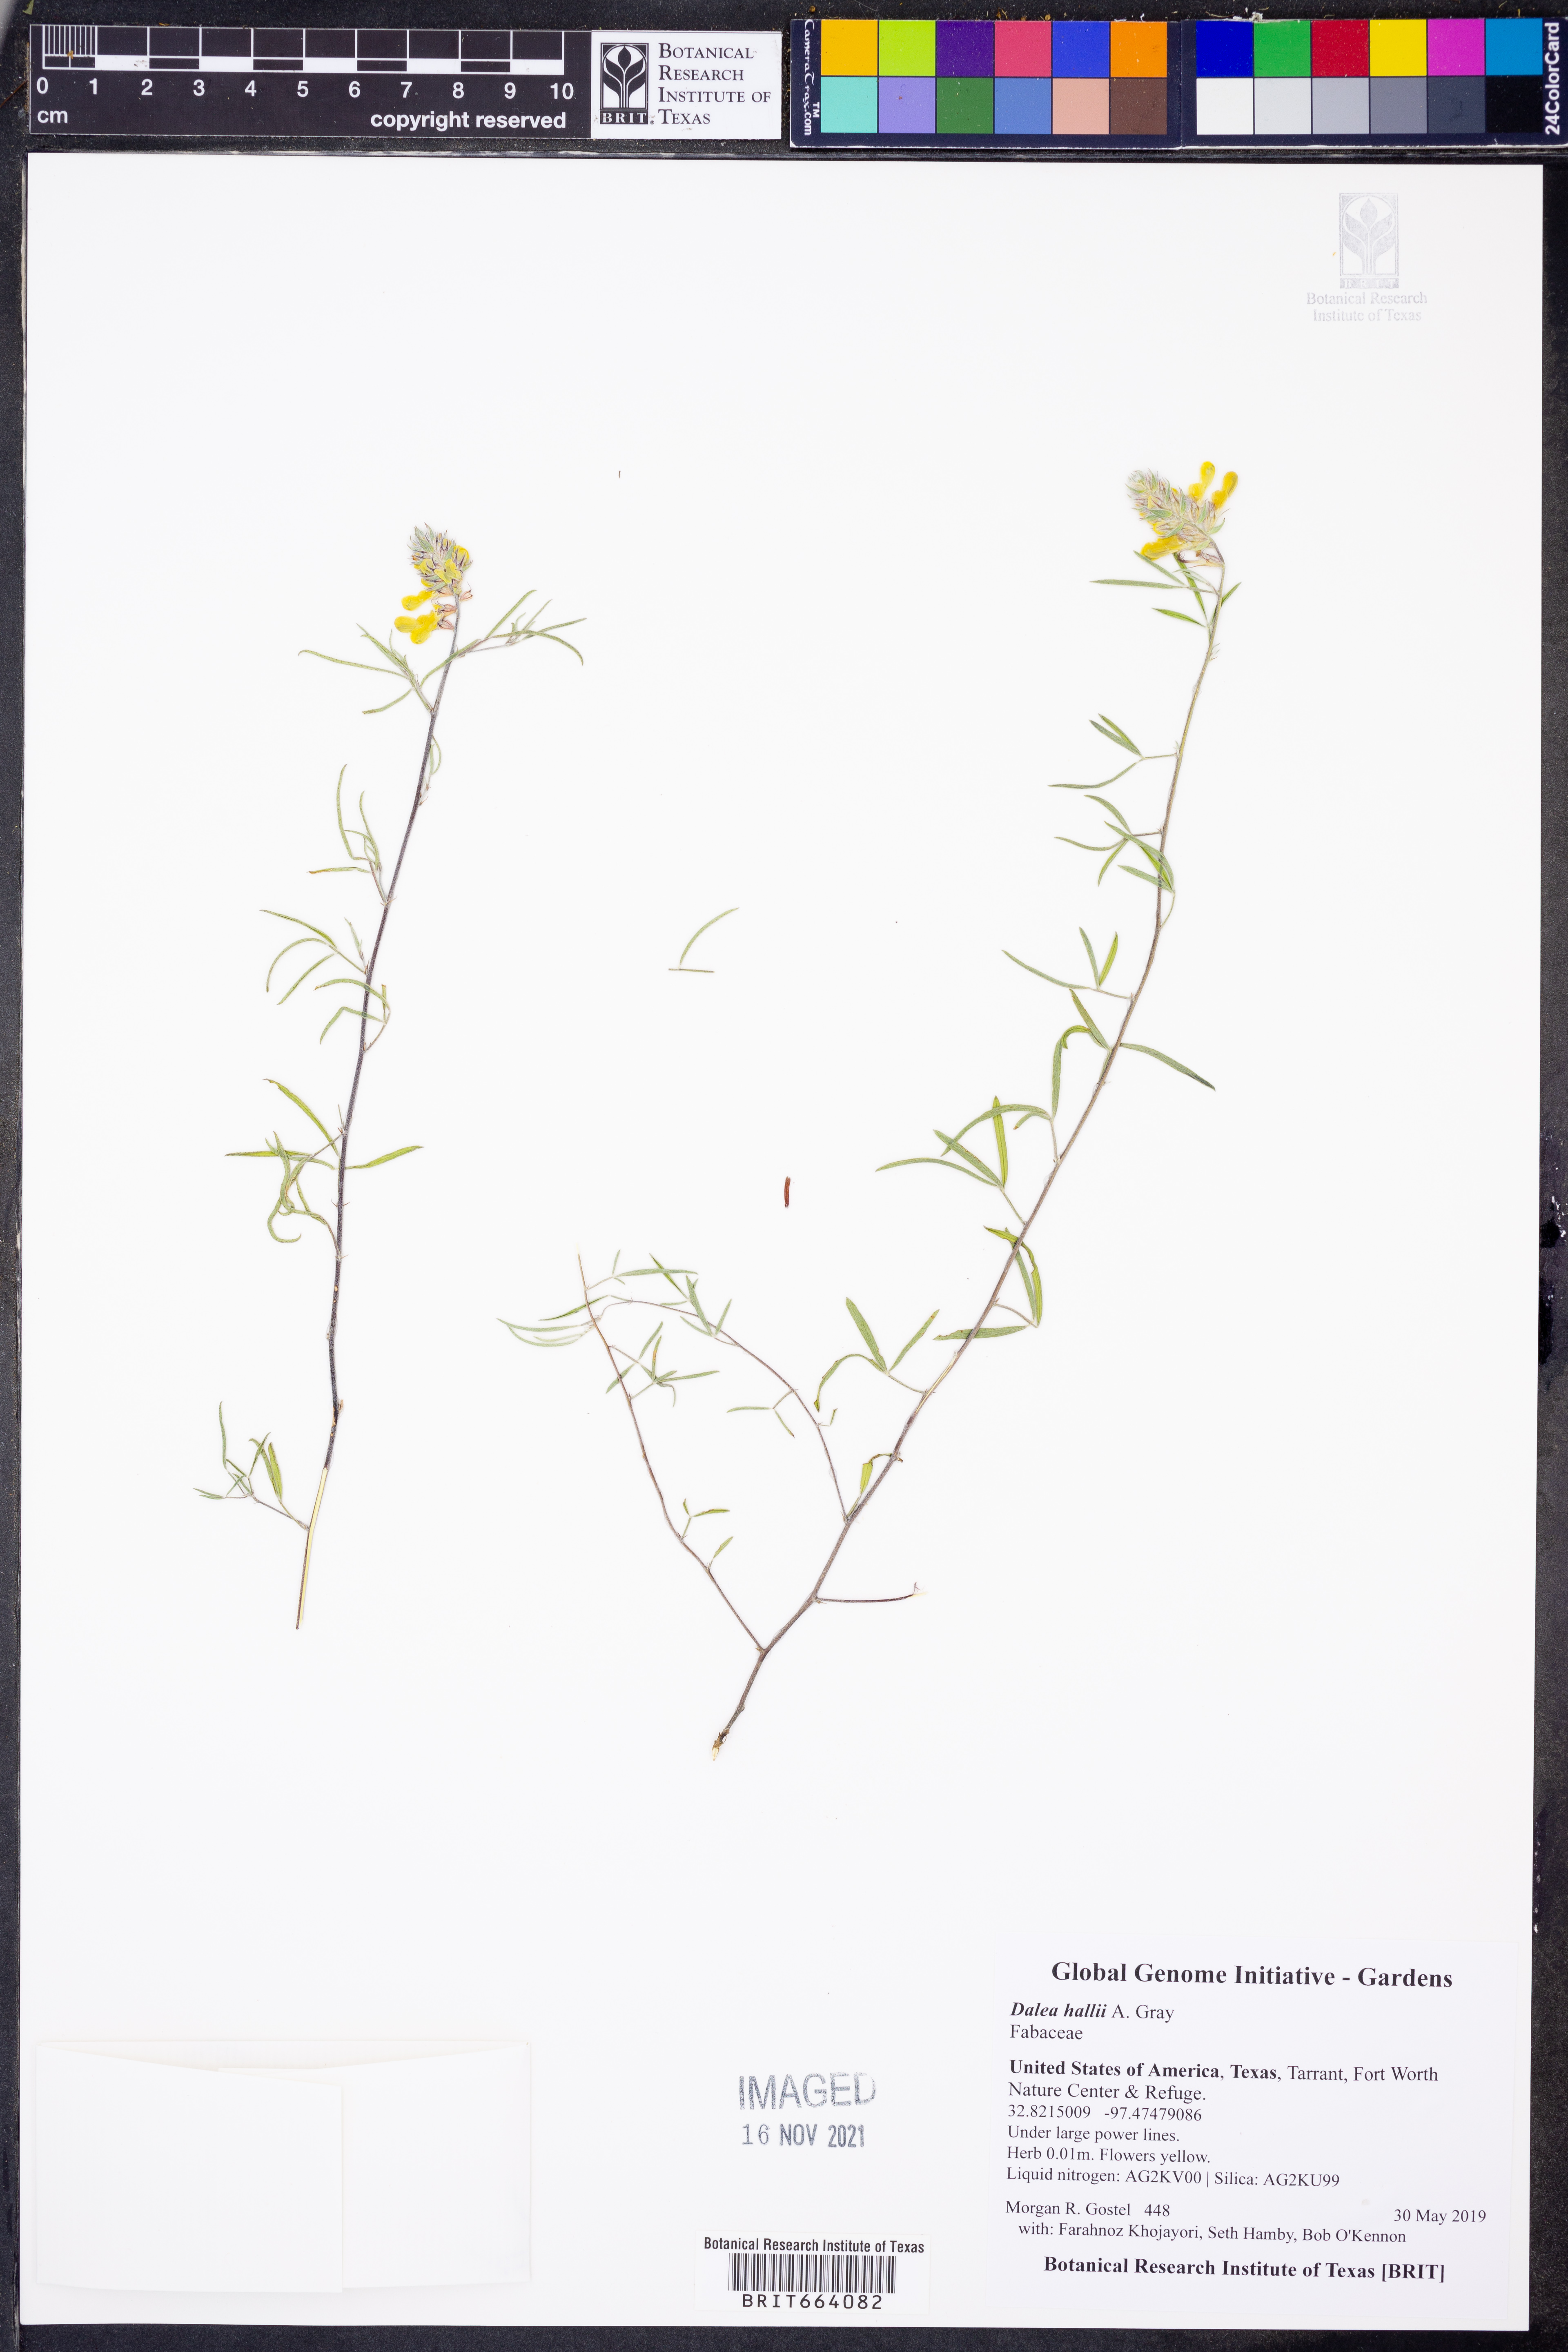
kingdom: Plantae
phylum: Tracheophyta
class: Magnoliopsida
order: Fabales
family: Fabaceae
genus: Dalea
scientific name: Dalea hallii
